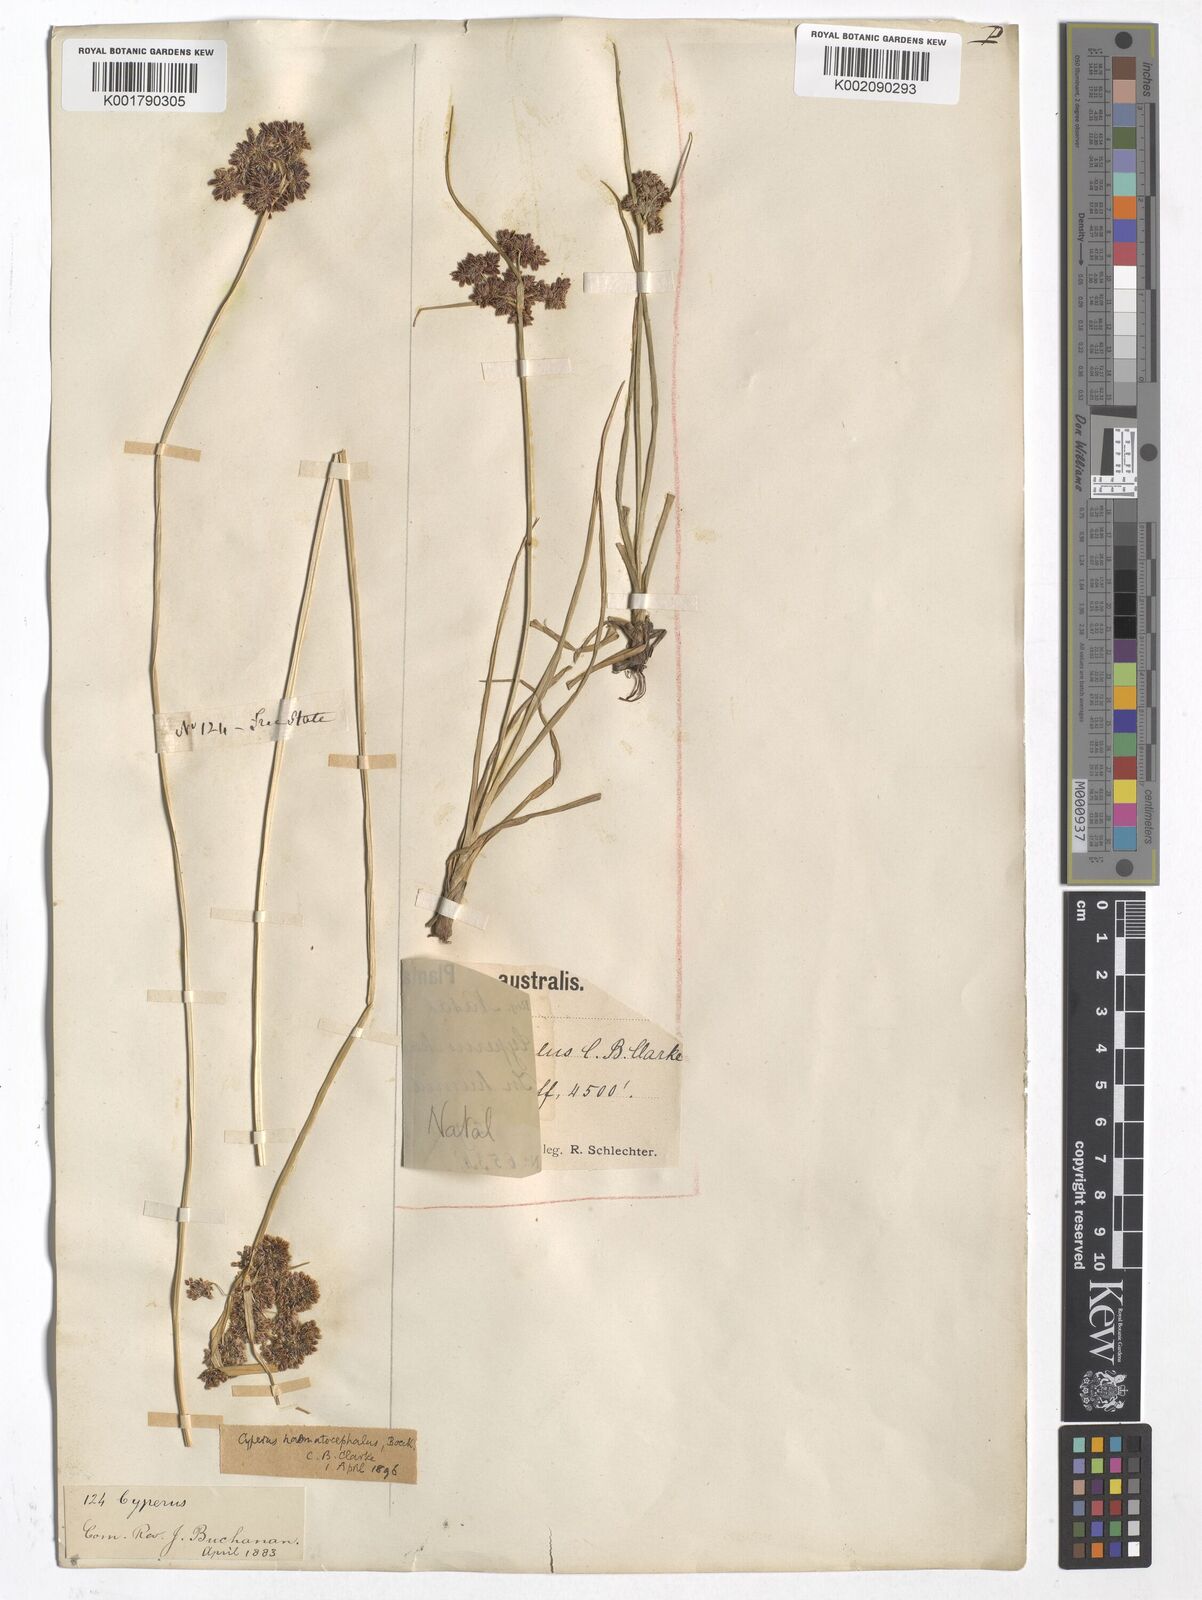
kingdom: Plantae
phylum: Tracheophyta
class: Liliopsida
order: Poales
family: Cyperaceae
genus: Cyperus
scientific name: Cyperus haematocephalus
